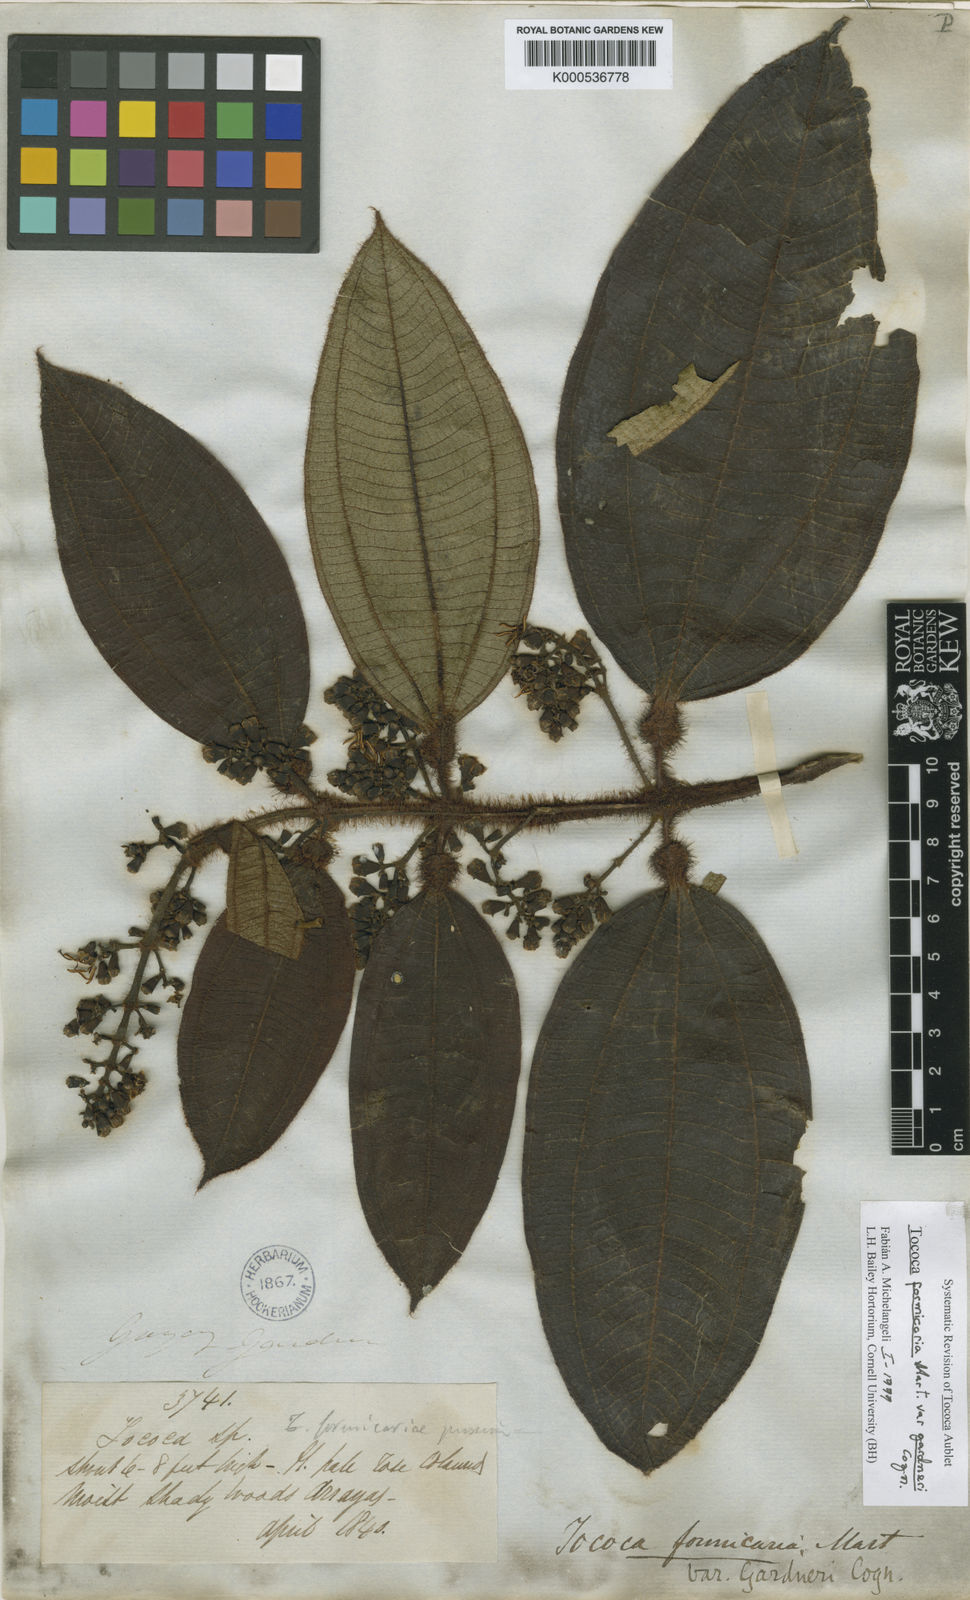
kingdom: Plantae
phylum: Tracheophyta
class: Magnoliopsida
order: Myrtales
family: Melastomataceae
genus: Miconia
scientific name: Miconia tococa
